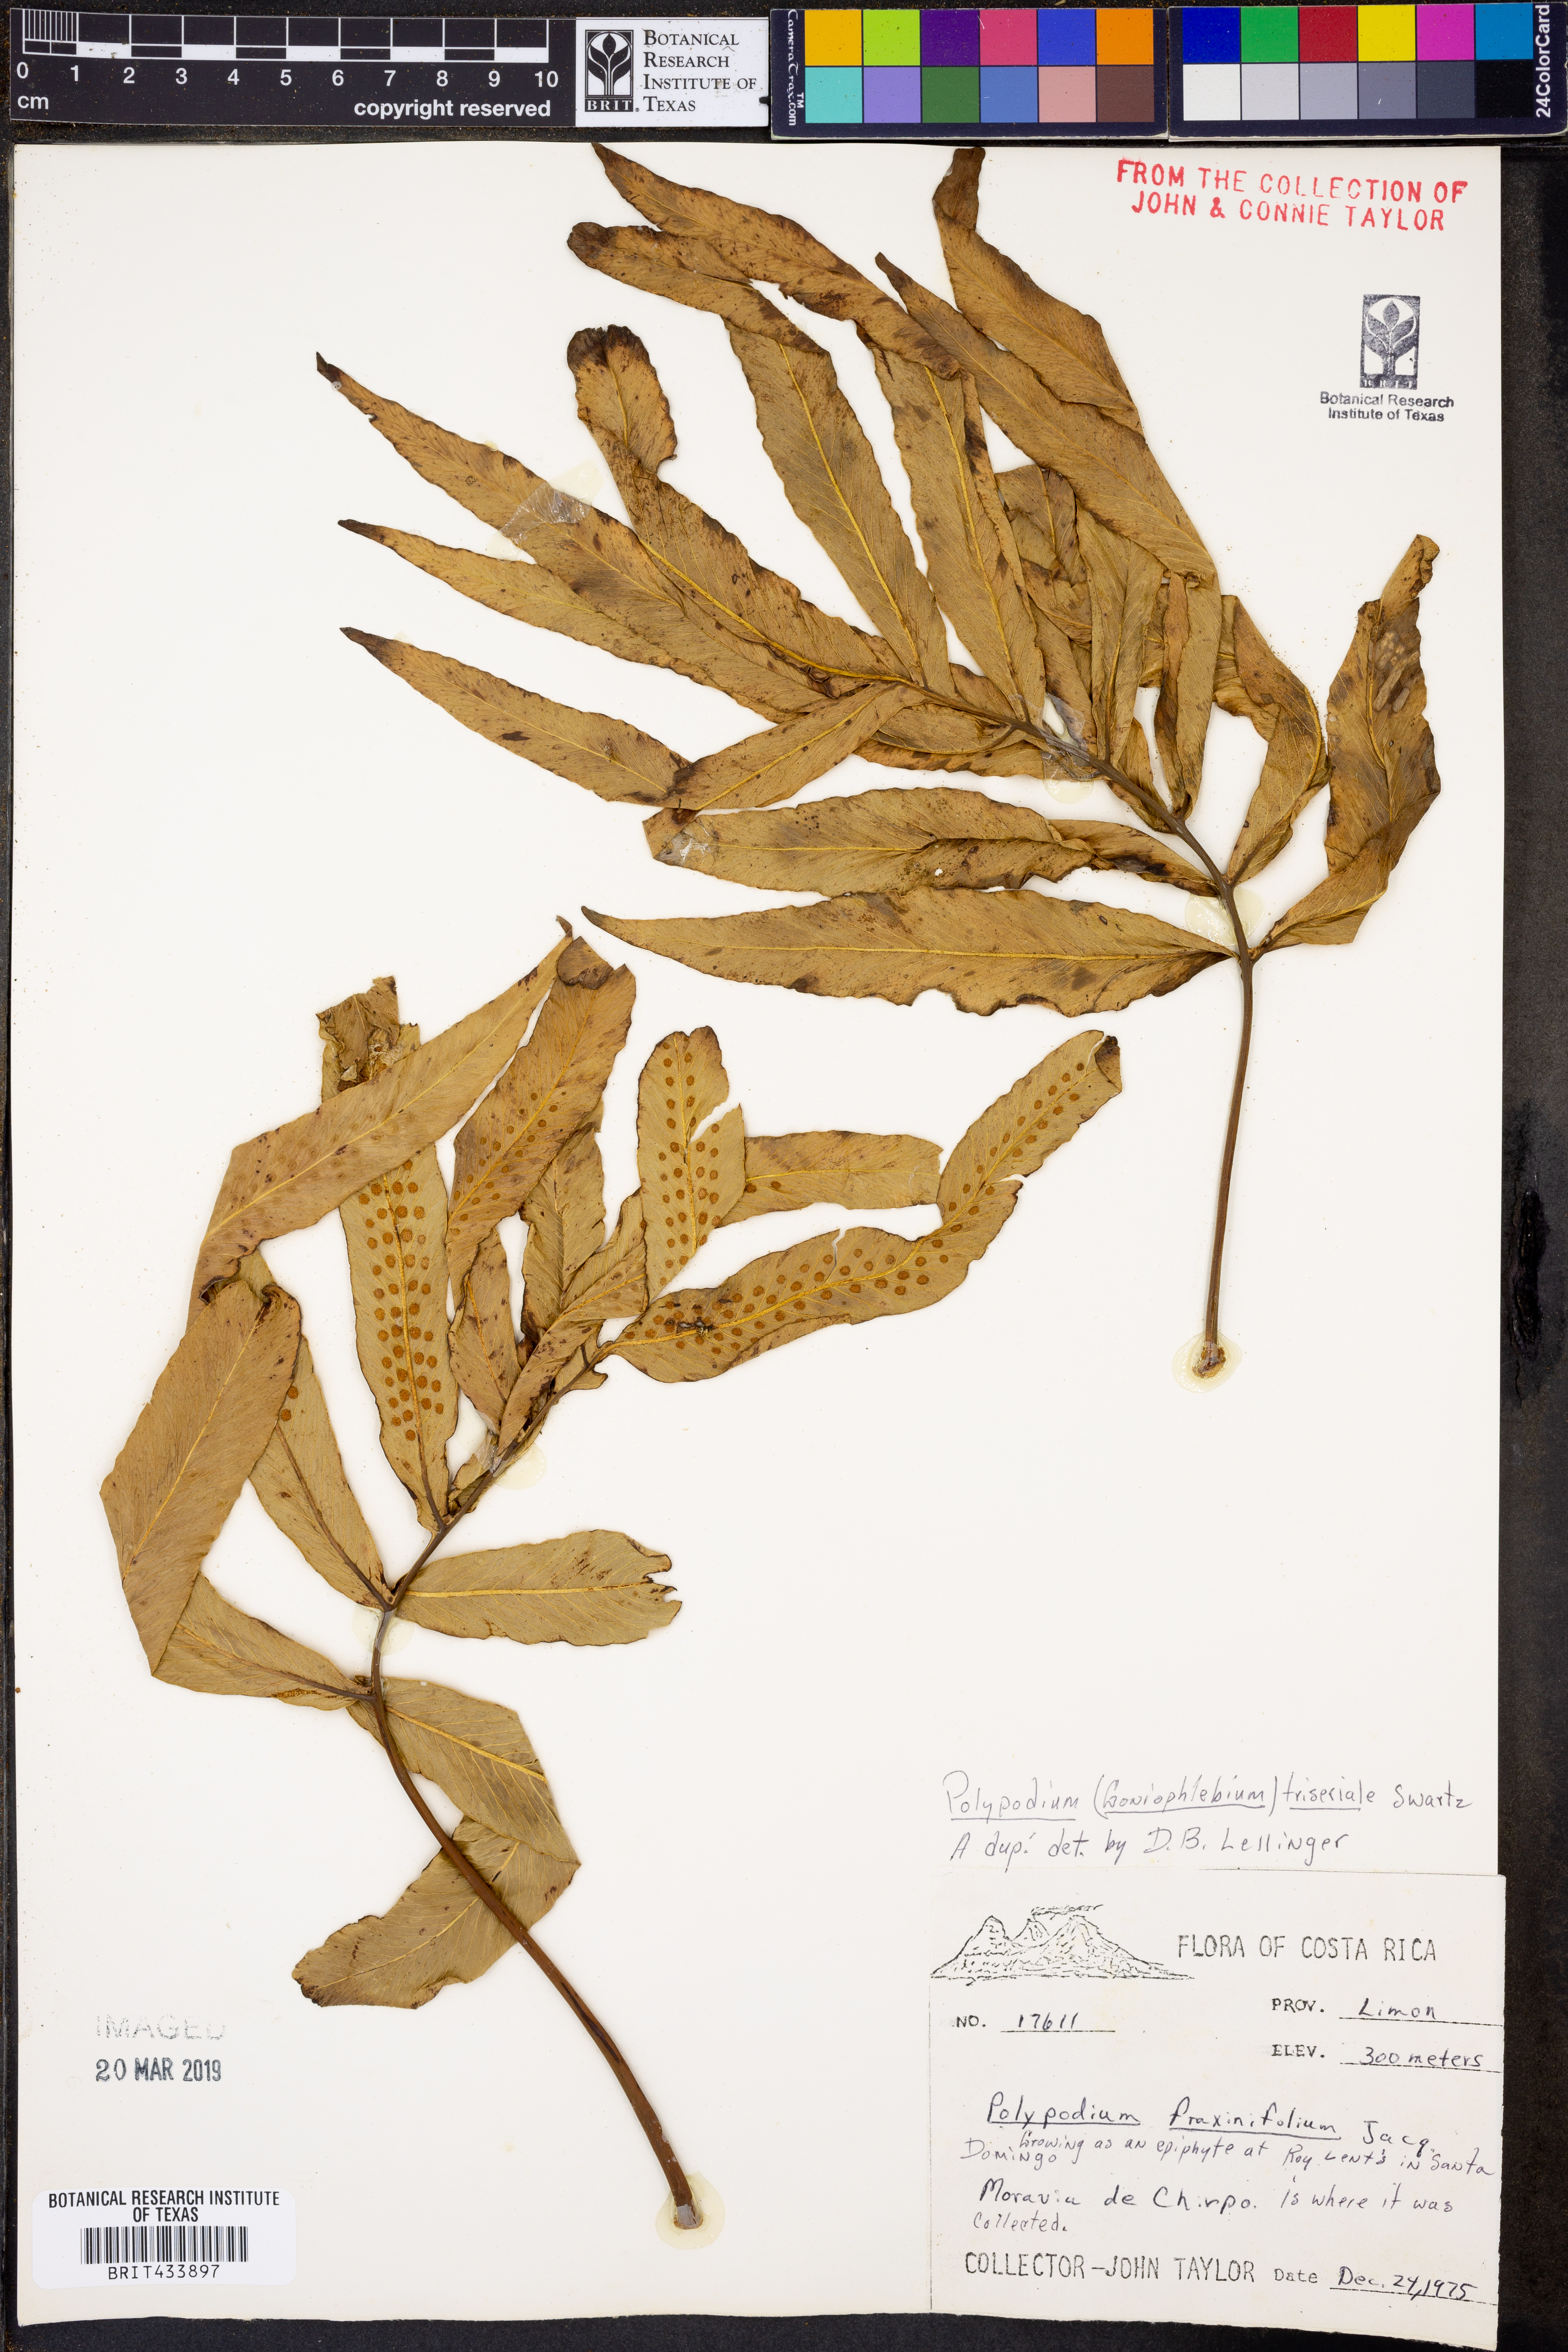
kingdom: Plantae
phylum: Tracheophyta
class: Polypodiopsida
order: Polypodiales
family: Polypodiaceae
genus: Serpocaulon
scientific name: Serpocaulon triseriale
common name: Angle-vein fern
